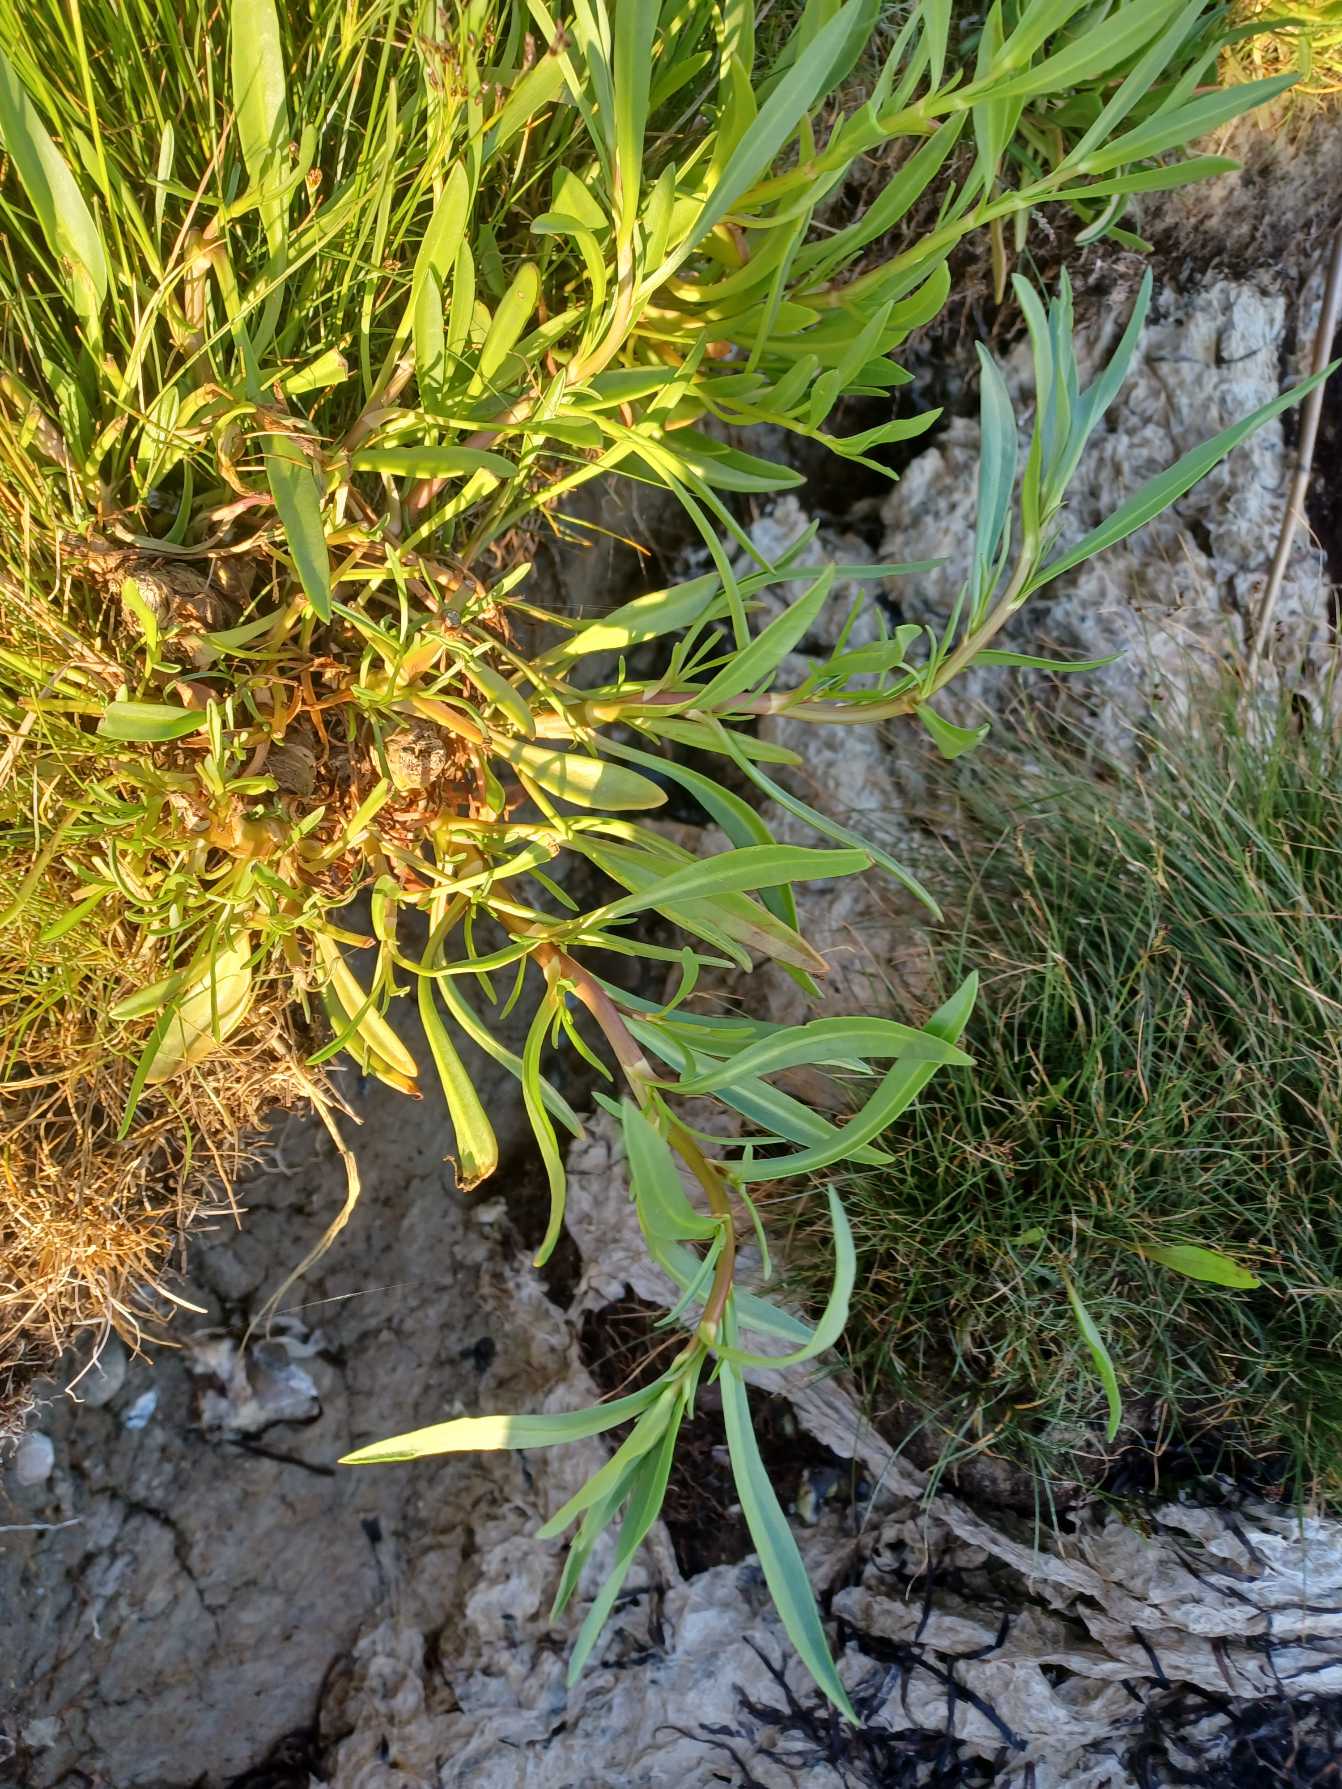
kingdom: Plantae
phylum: Tracheophyta
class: Magnoliopsida
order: Asterales
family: Asteraceae
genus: Tripolium
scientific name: Tripolium pannonicum
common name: Strandasters
